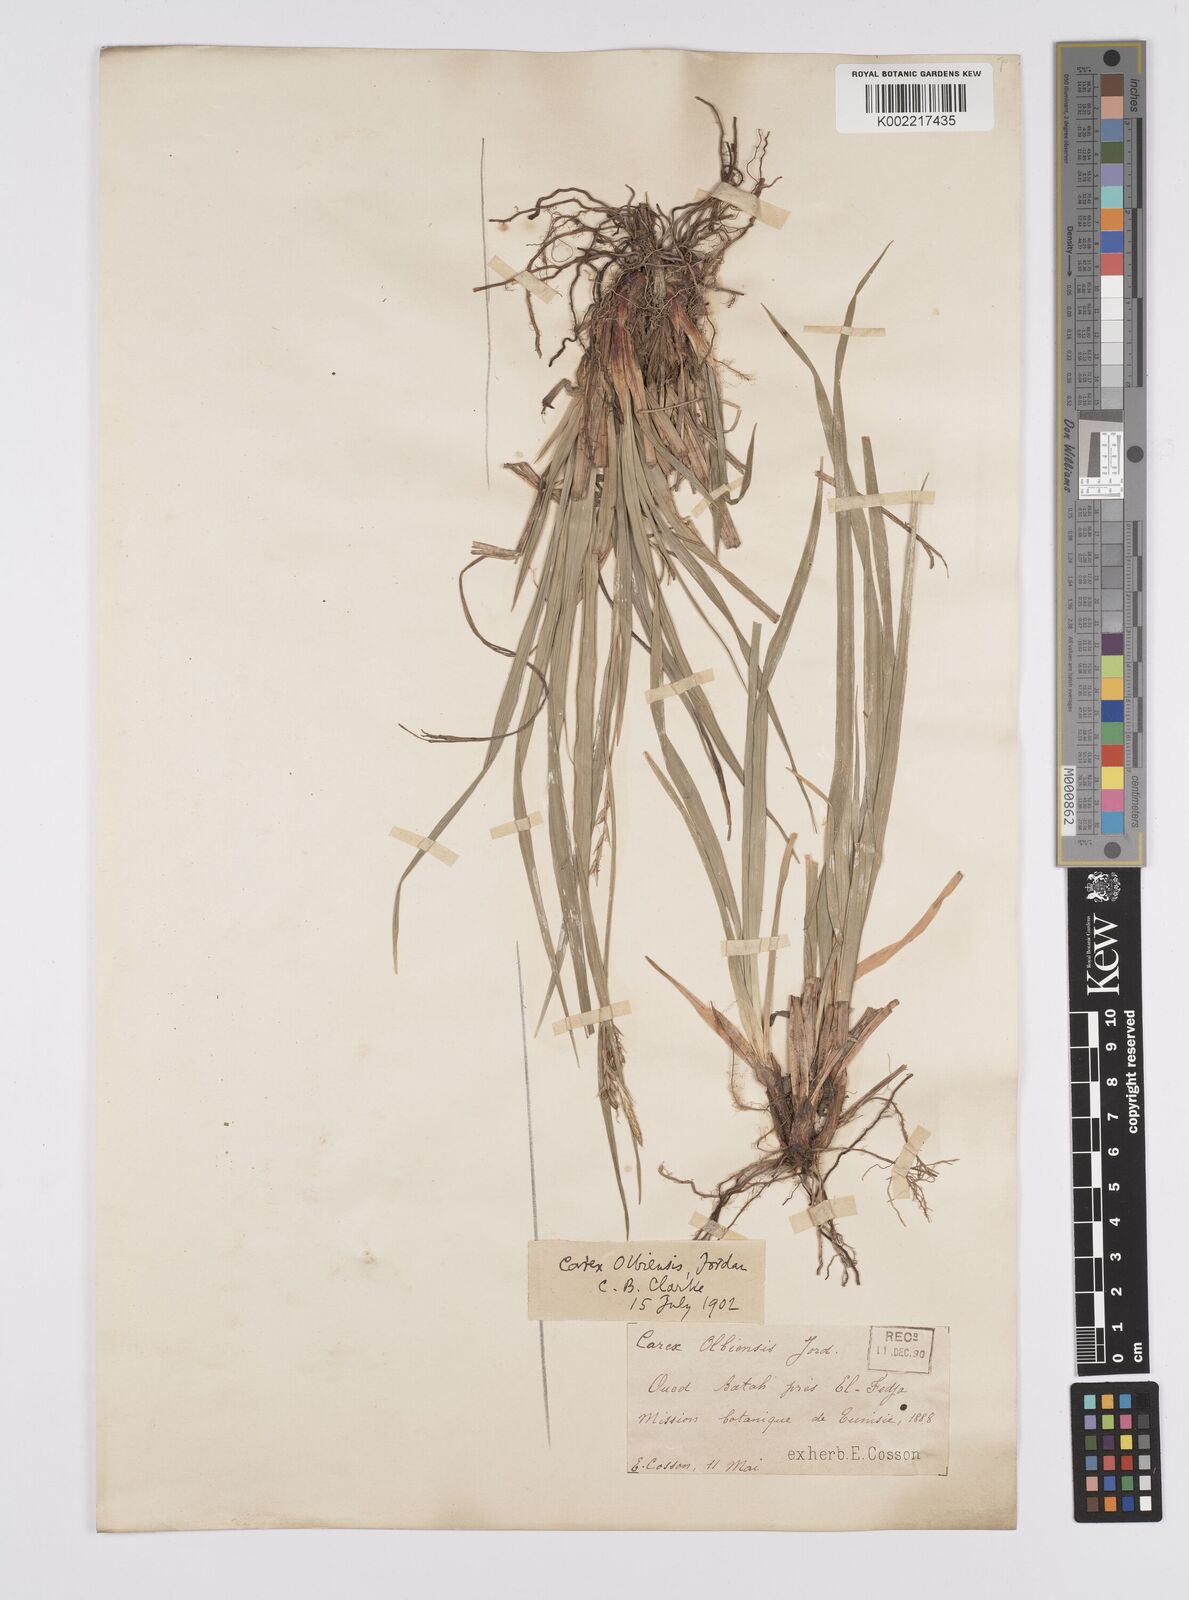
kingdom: Plantae
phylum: Tracheophyta
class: Liliopsida
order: Poales
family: Cyperaceae
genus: Carex
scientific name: Carex olbiensis
